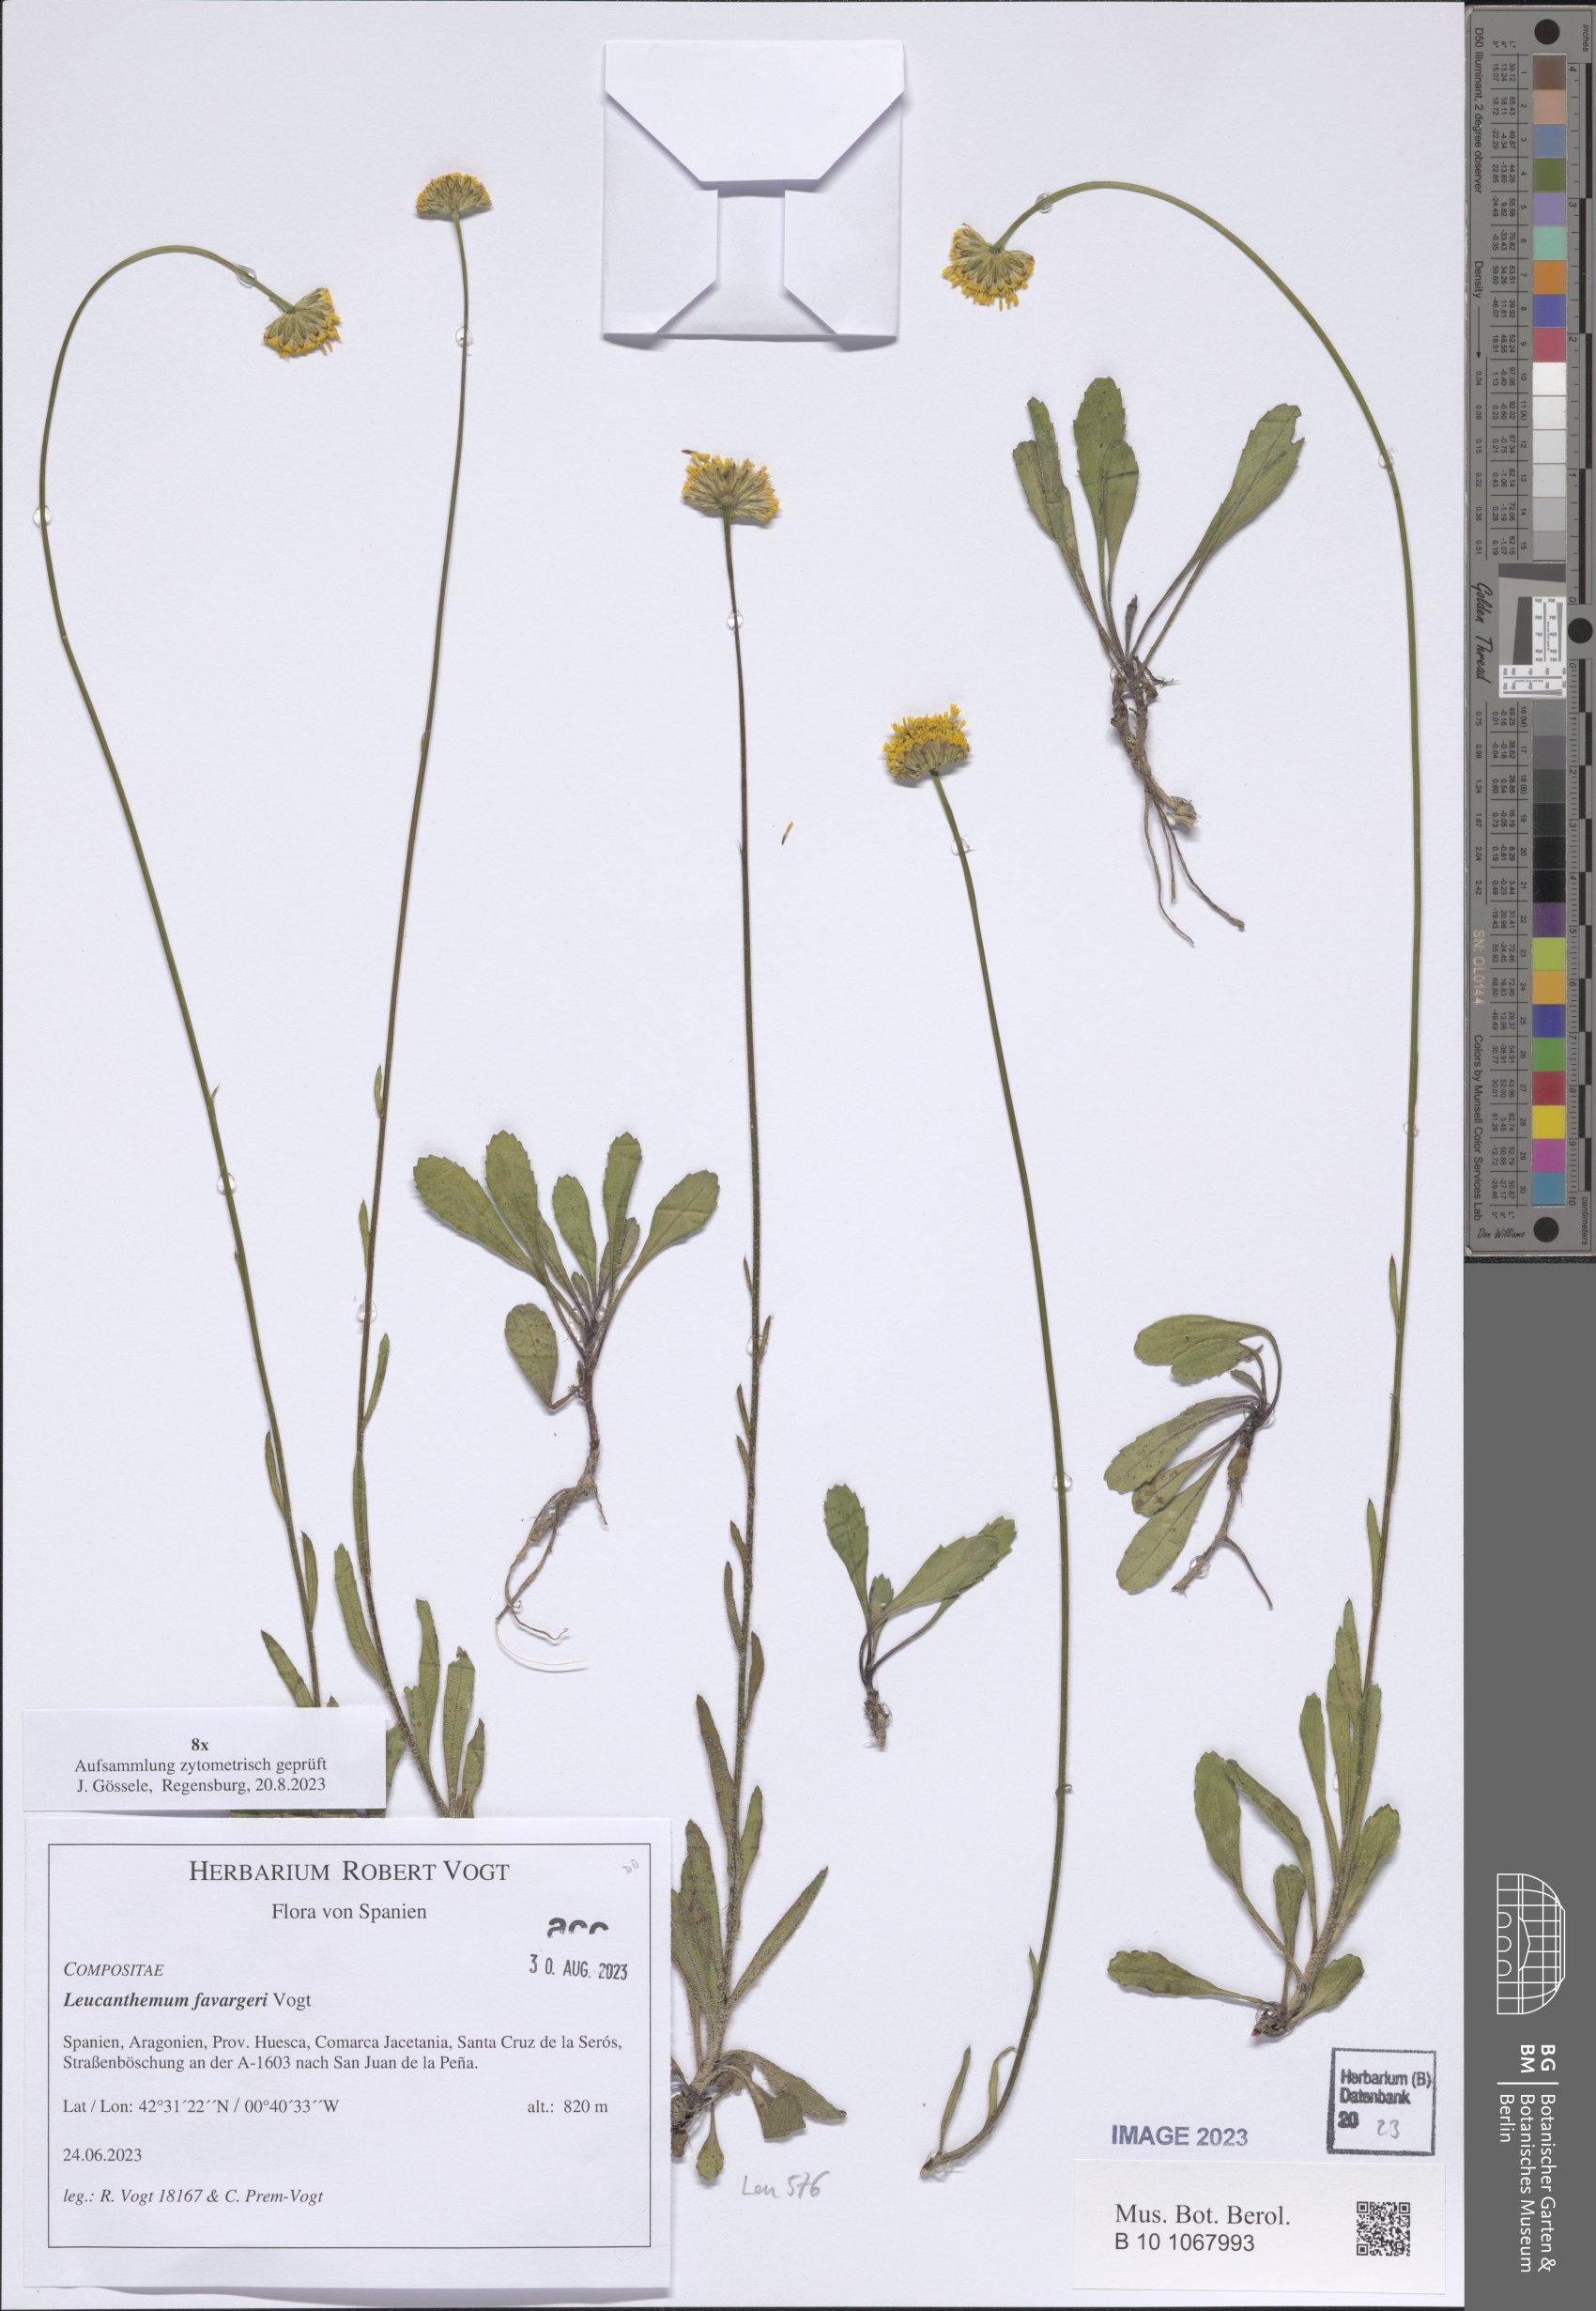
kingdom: Plantae
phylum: Tracheophyta
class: Magnoliopsida
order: Asterales
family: Asteraceae
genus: Leucanthemum
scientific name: Leucanthemum favargeri
